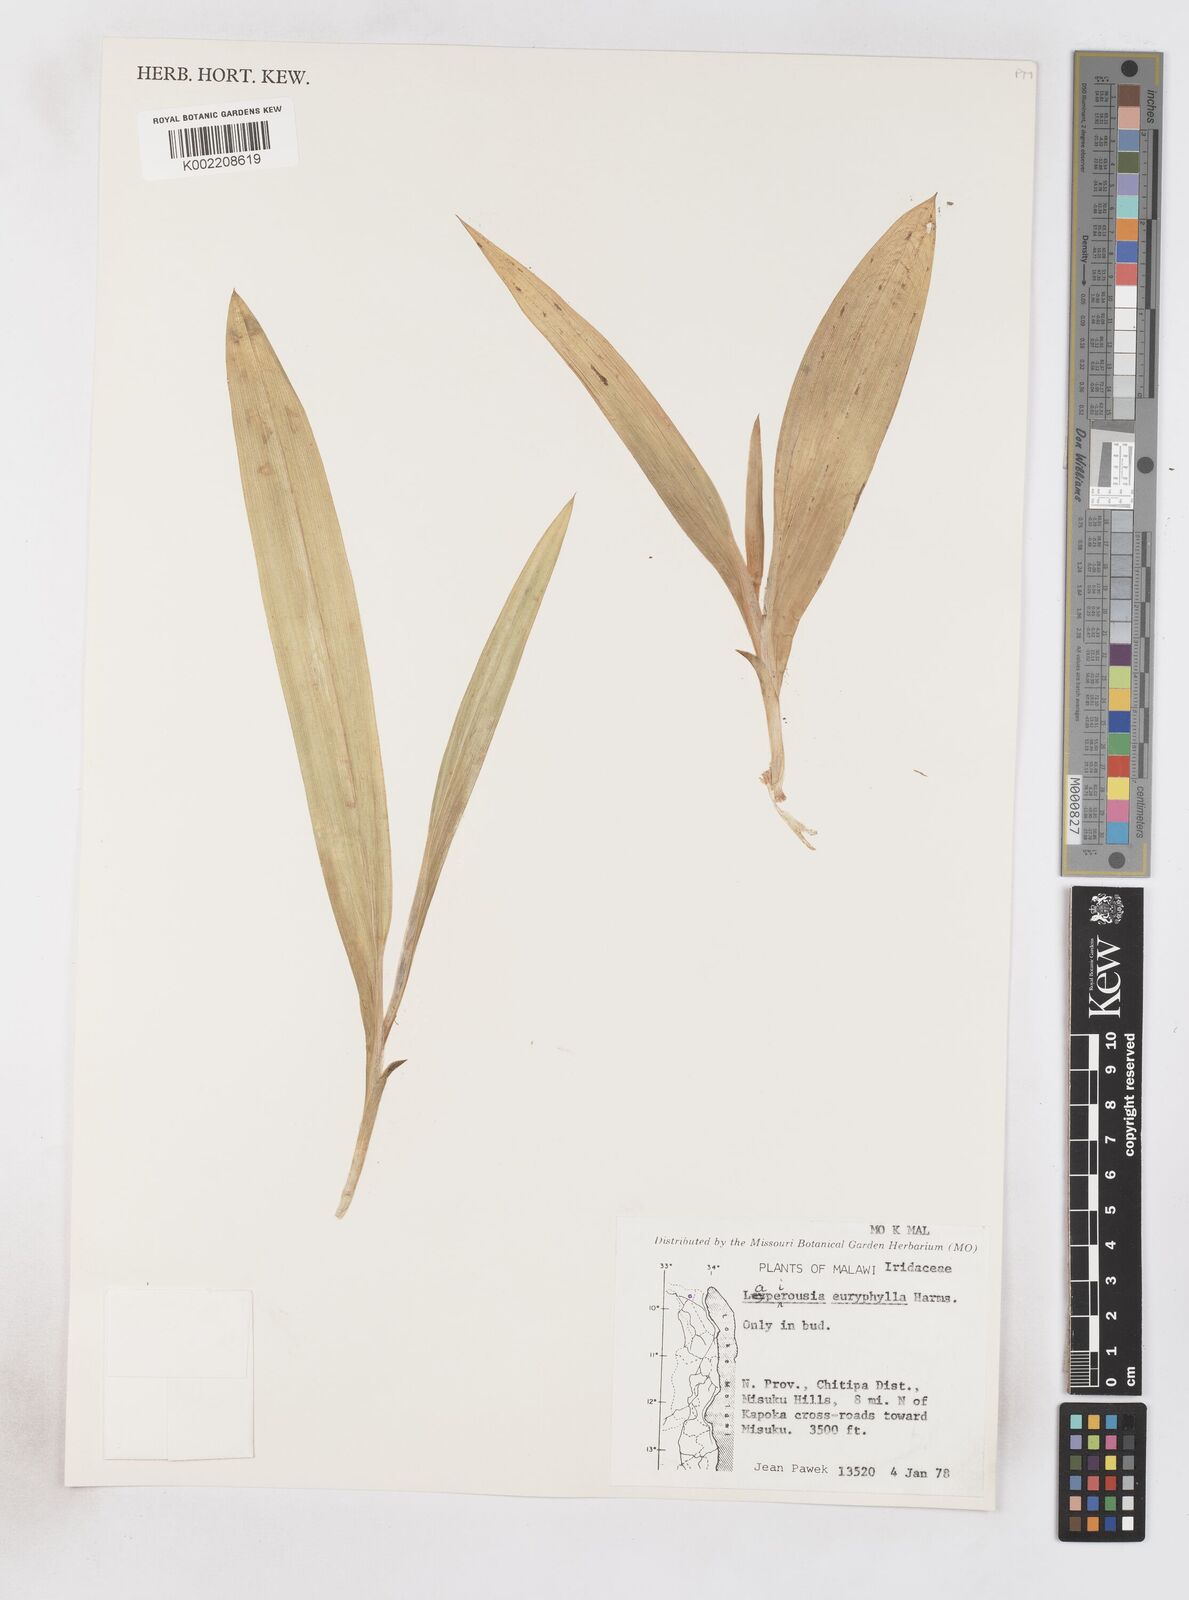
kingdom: Plantae
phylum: Tracheophyta
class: Liliopsida
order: Asparagales
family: Iridaceae
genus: Savannosiphon
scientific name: Savannosiphon euryphylla
